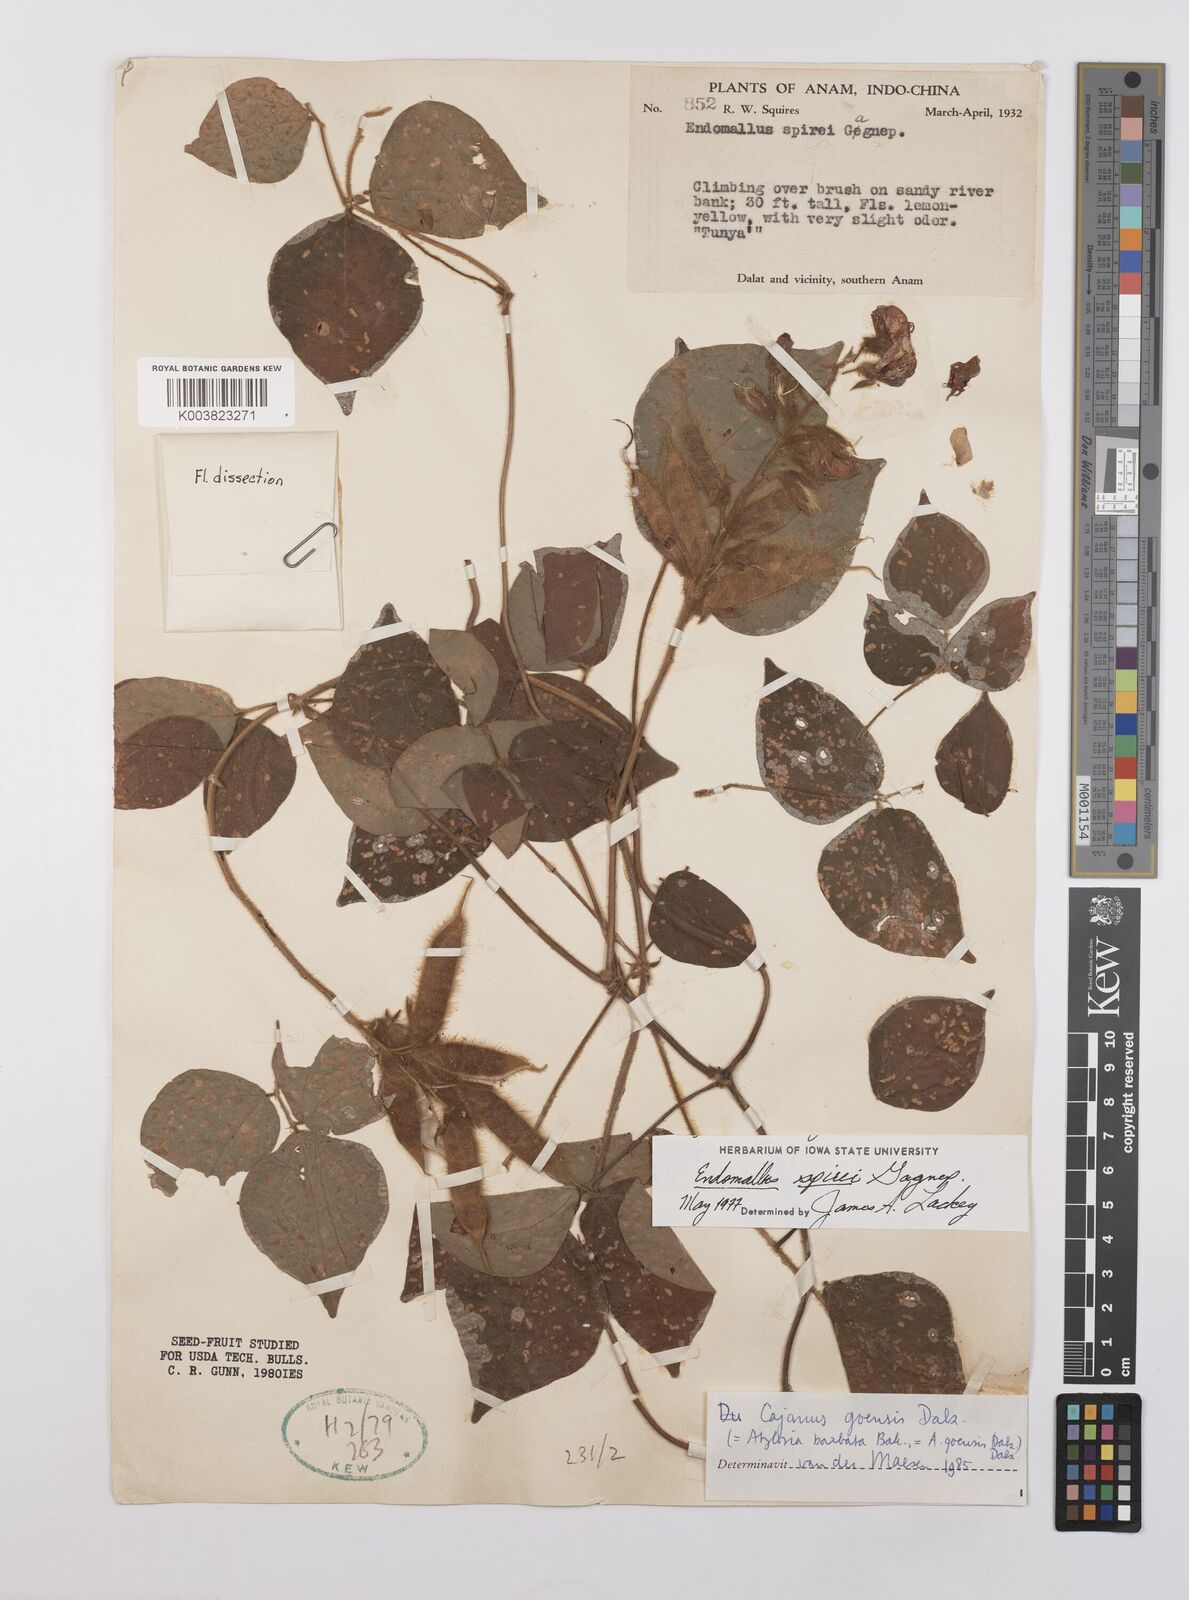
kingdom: Plantae
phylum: Tracheophyta
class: Magnoliopsida
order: Fabales
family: Fabaceae
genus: Cajanus
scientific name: Cajanus
